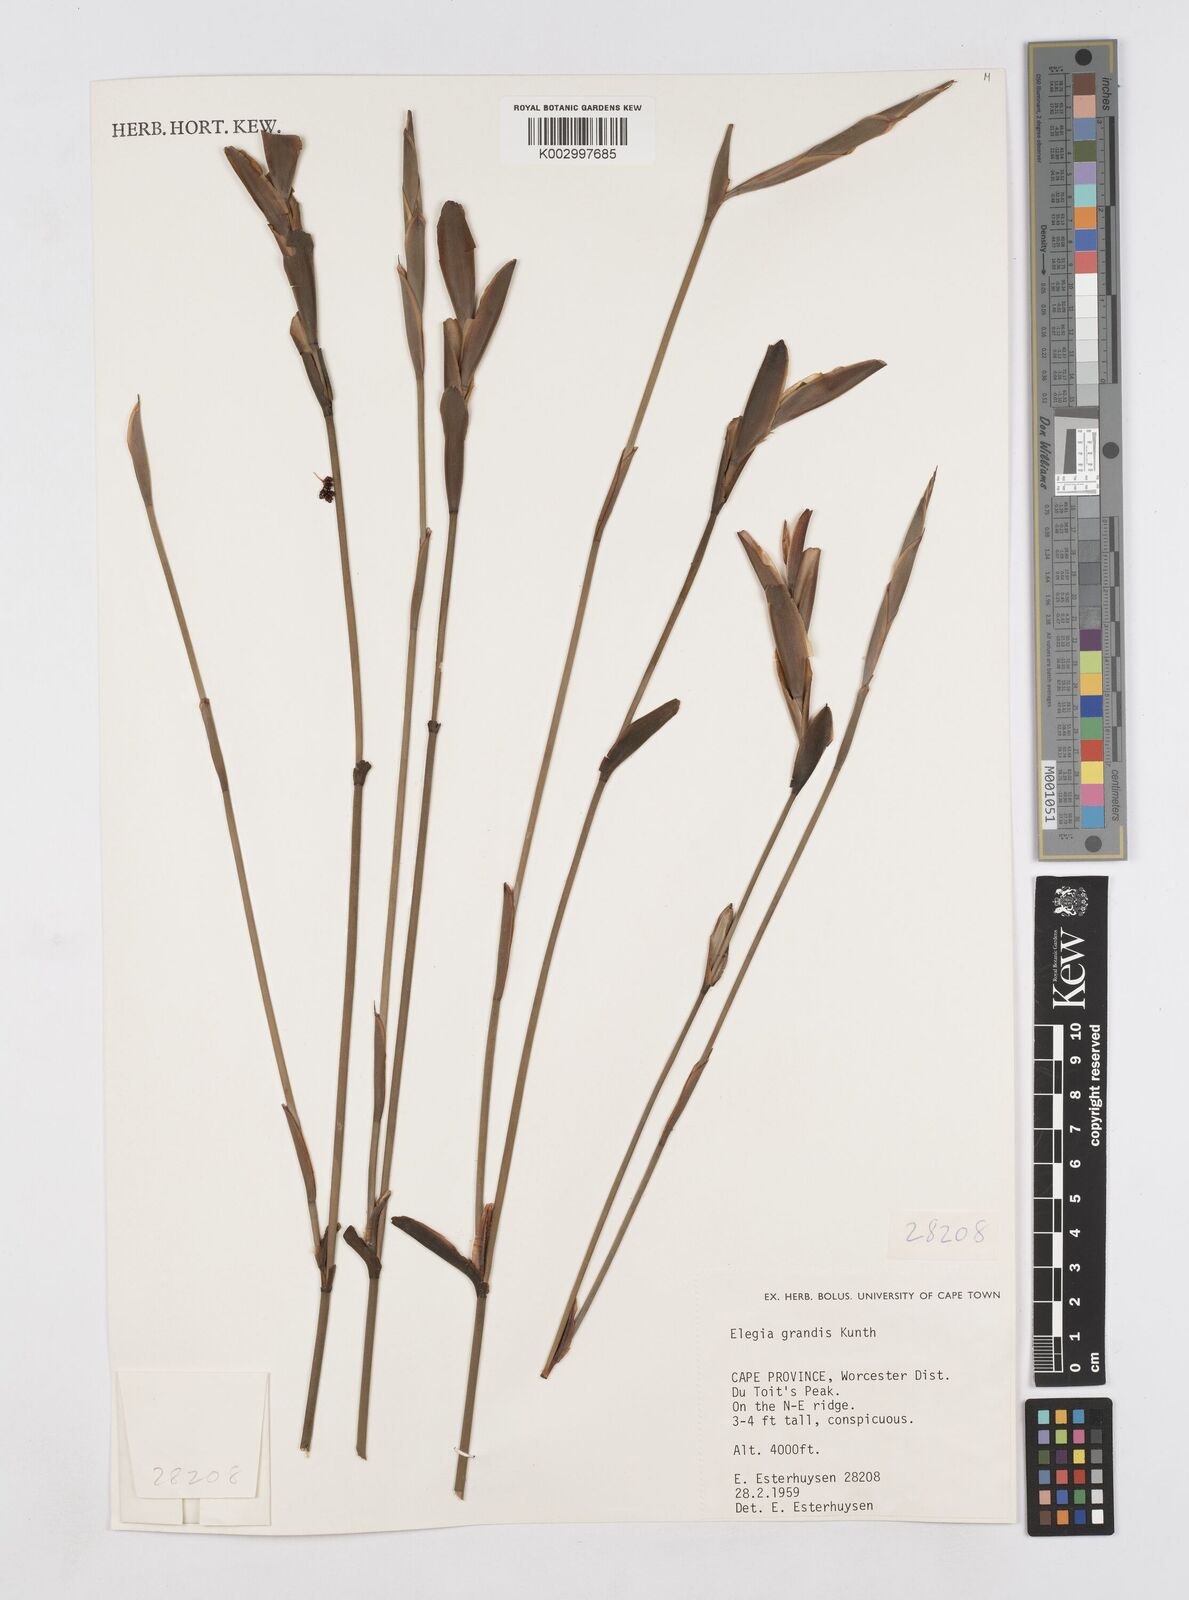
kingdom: Plantae
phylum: Tracheophyta
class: Liliopsida
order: Poales
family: Restionaceae
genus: Elegia
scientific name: Elegia grandis
